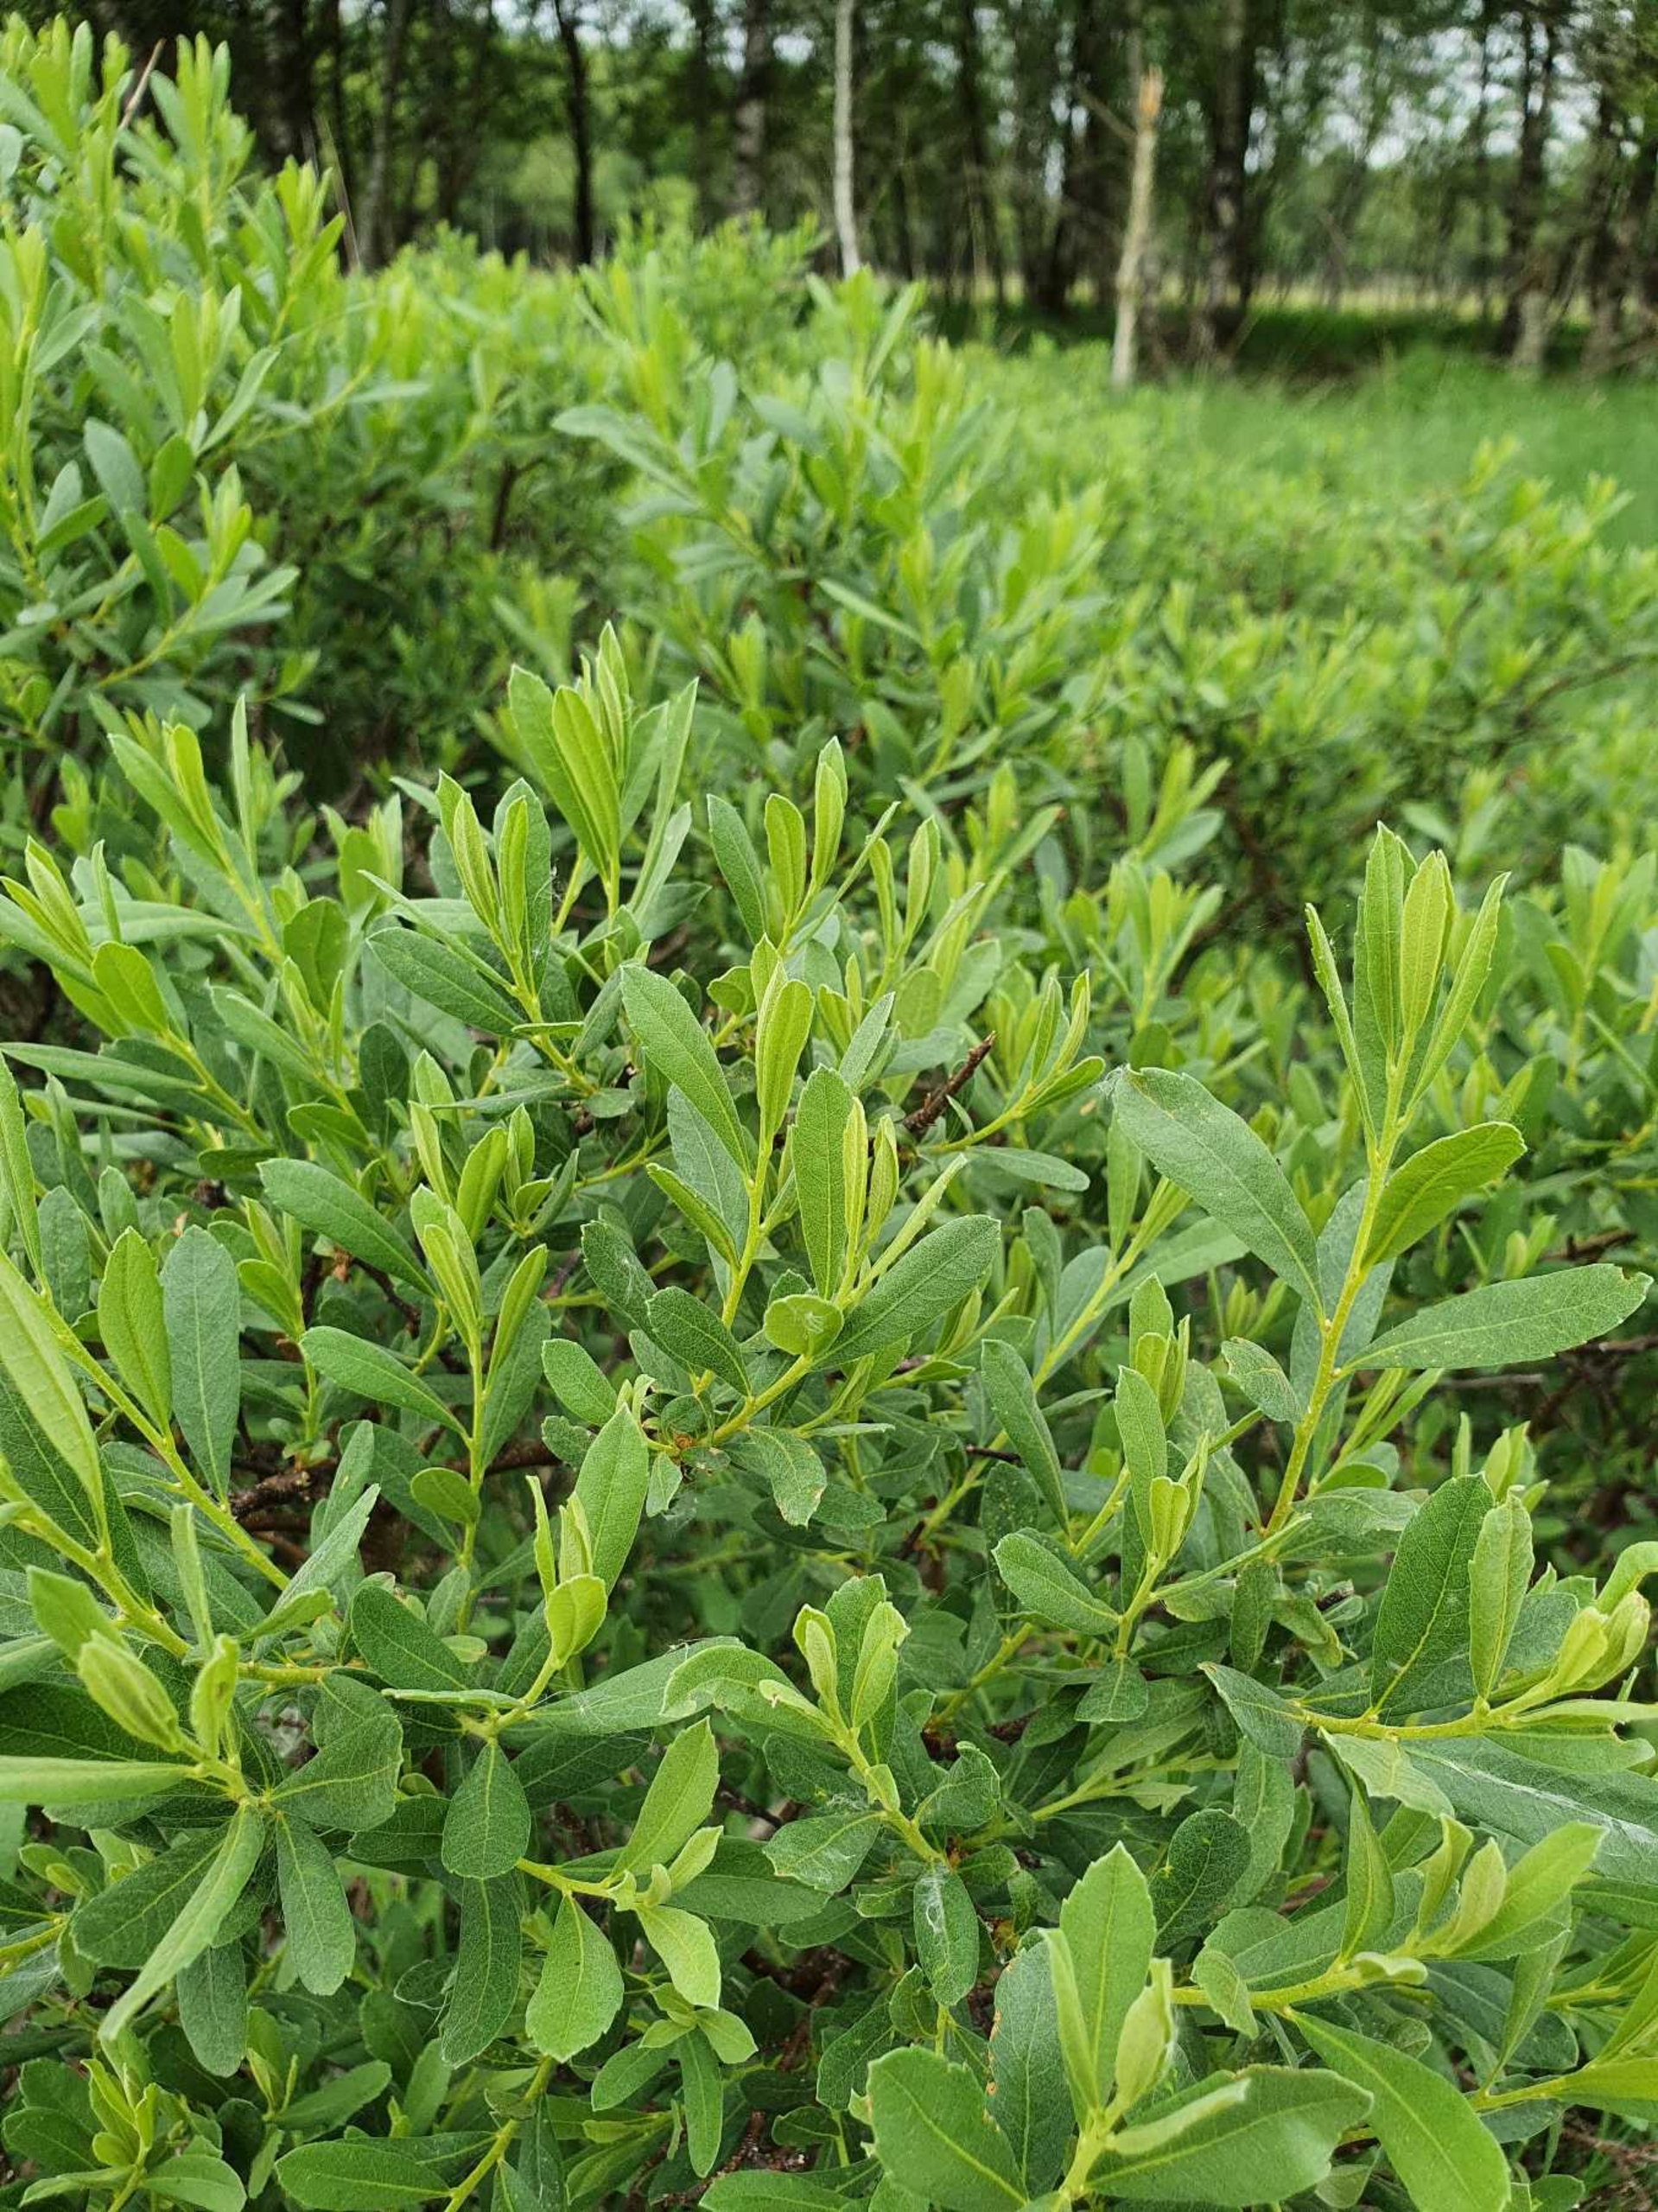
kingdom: Plantae
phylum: Tracheophyta
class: Magnoliopsida
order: Fagales
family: Myricaceae
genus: Myrica
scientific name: Myrica gale
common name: Pors
